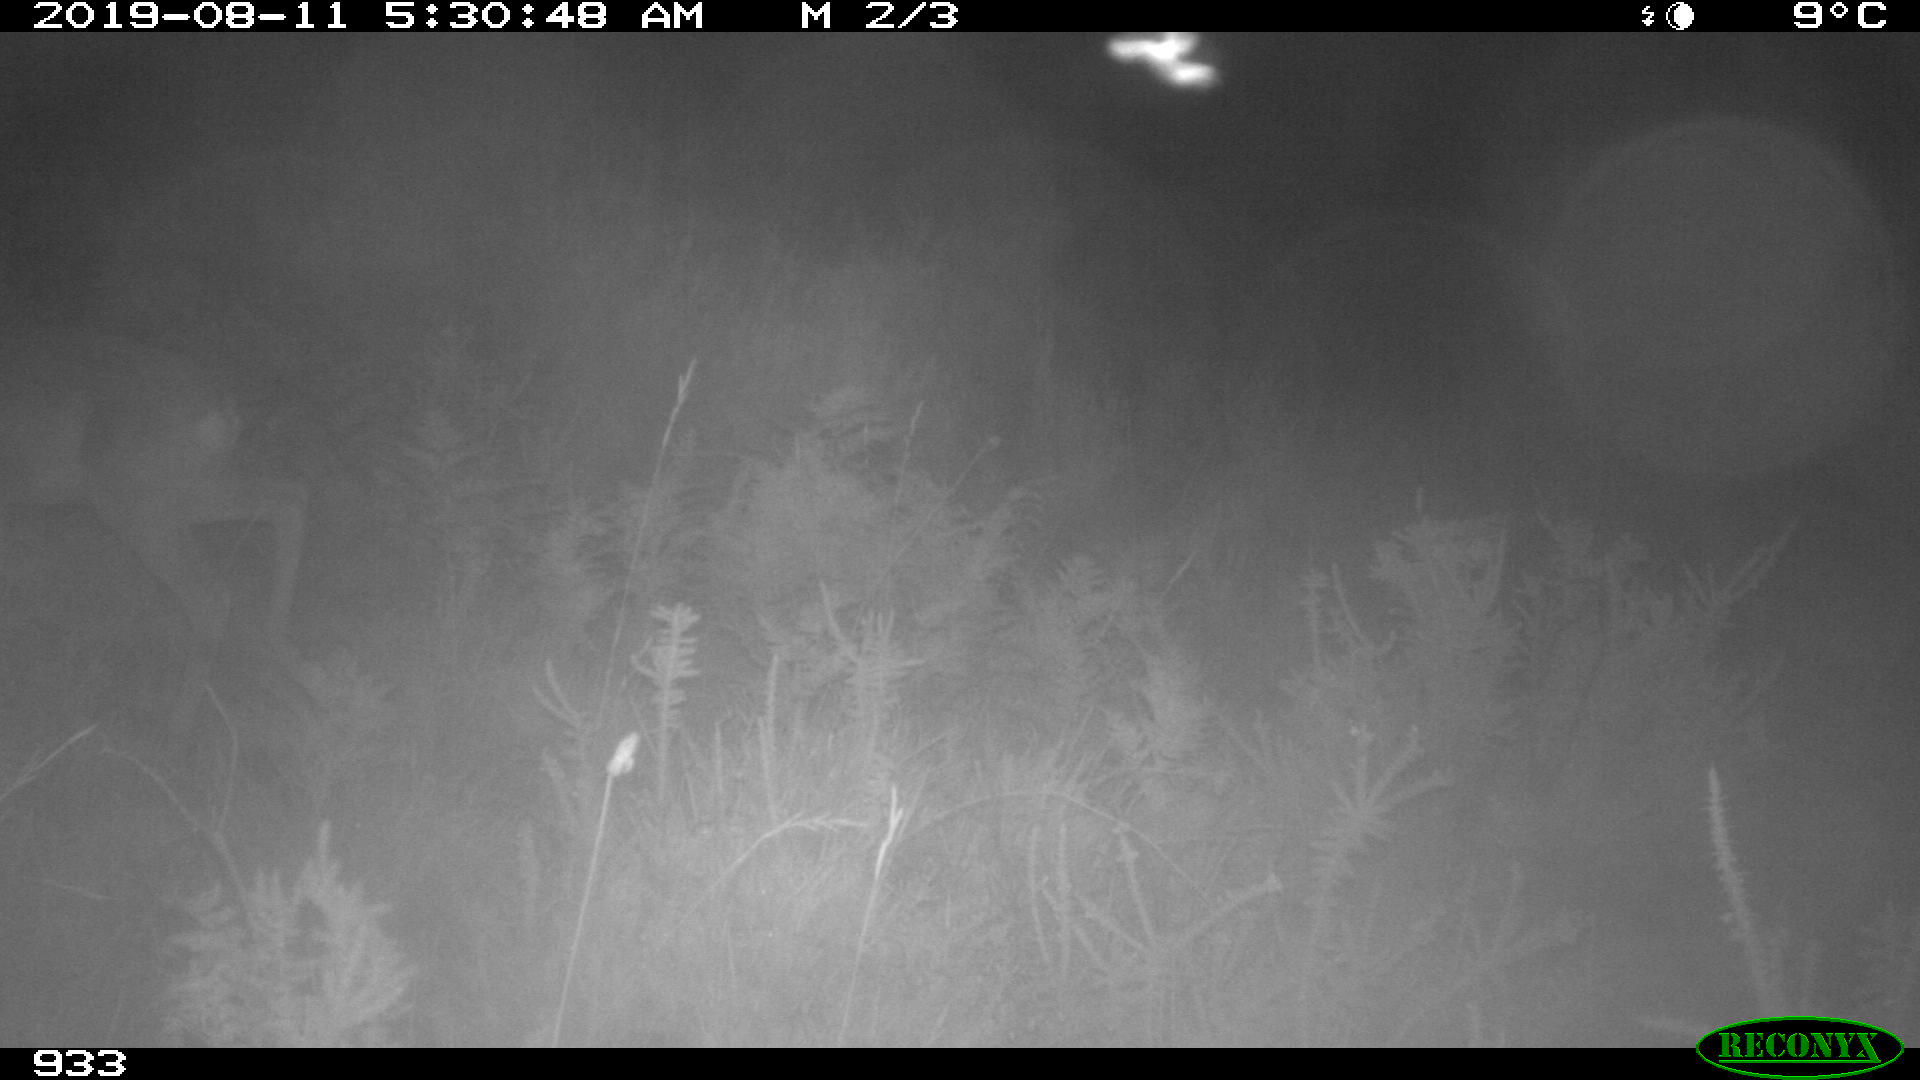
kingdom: Animalia
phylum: Chordata
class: Mammalia
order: Artiodactyla
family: Cervidae
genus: Capreolus
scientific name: Capreolus capreolus
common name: Western roe deer
